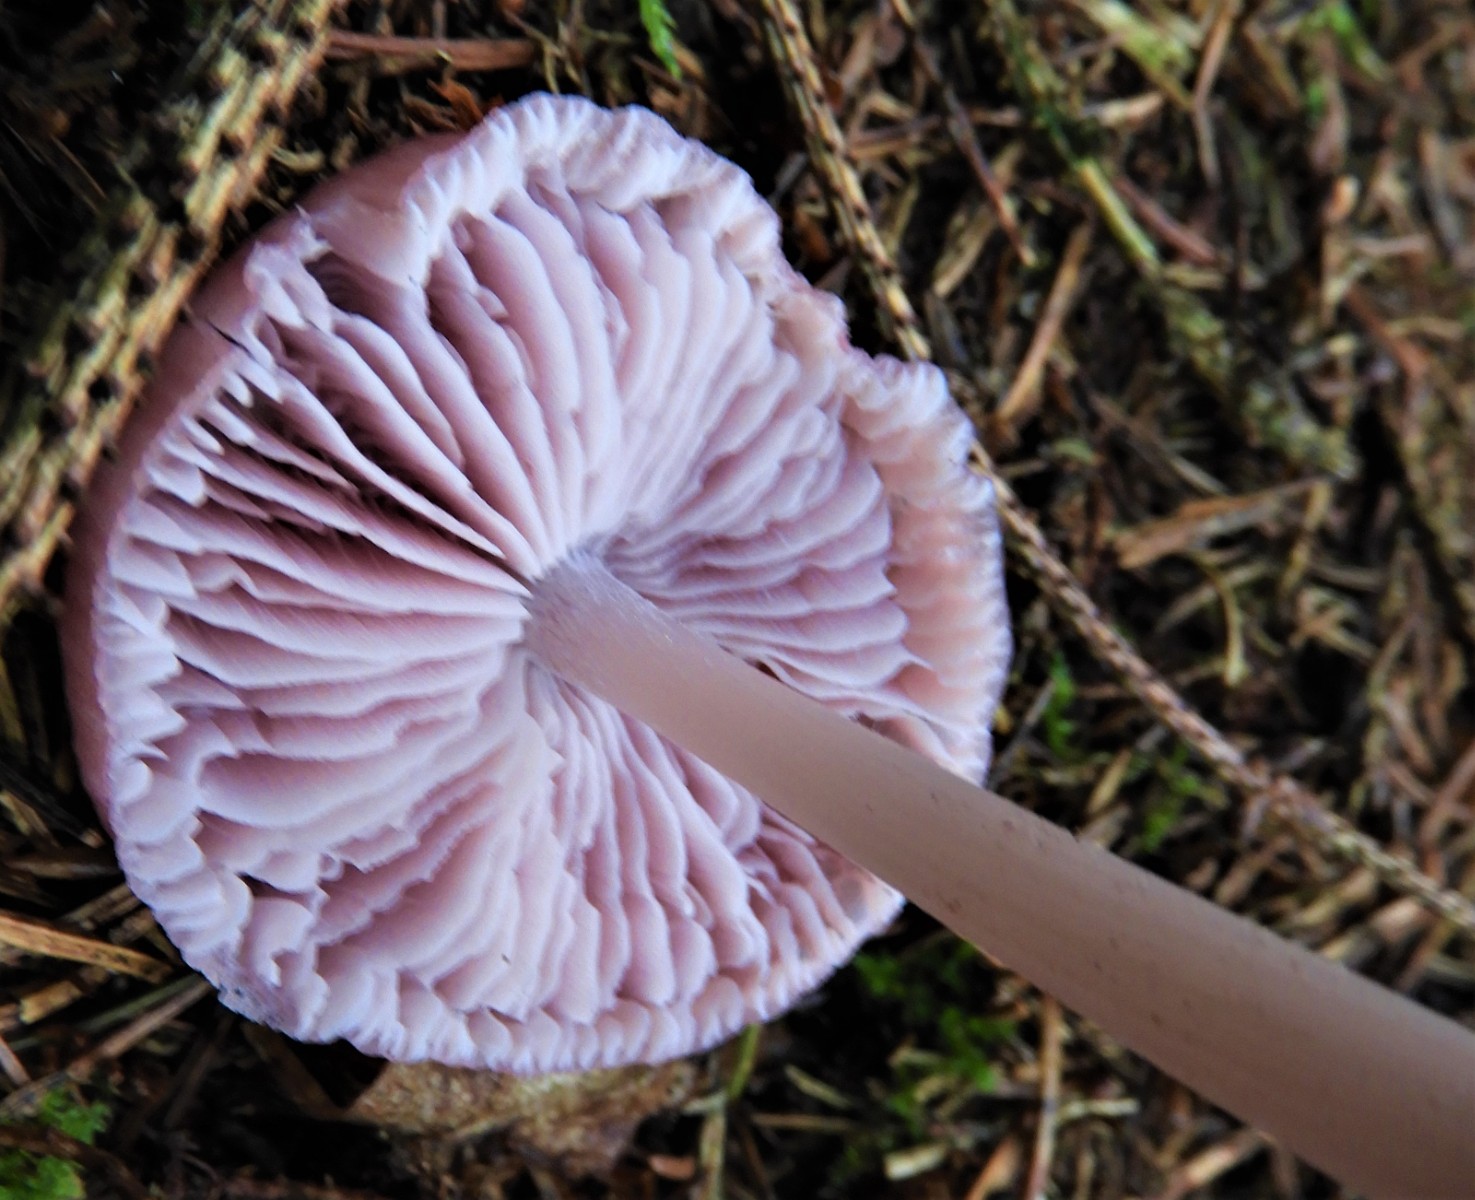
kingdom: Fungi
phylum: Basidiomycota
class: Agaricomycetes
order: Agaricales
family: Mycenaceae
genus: Mycena
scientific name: Mycena rosea
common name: rosa huesvamp
